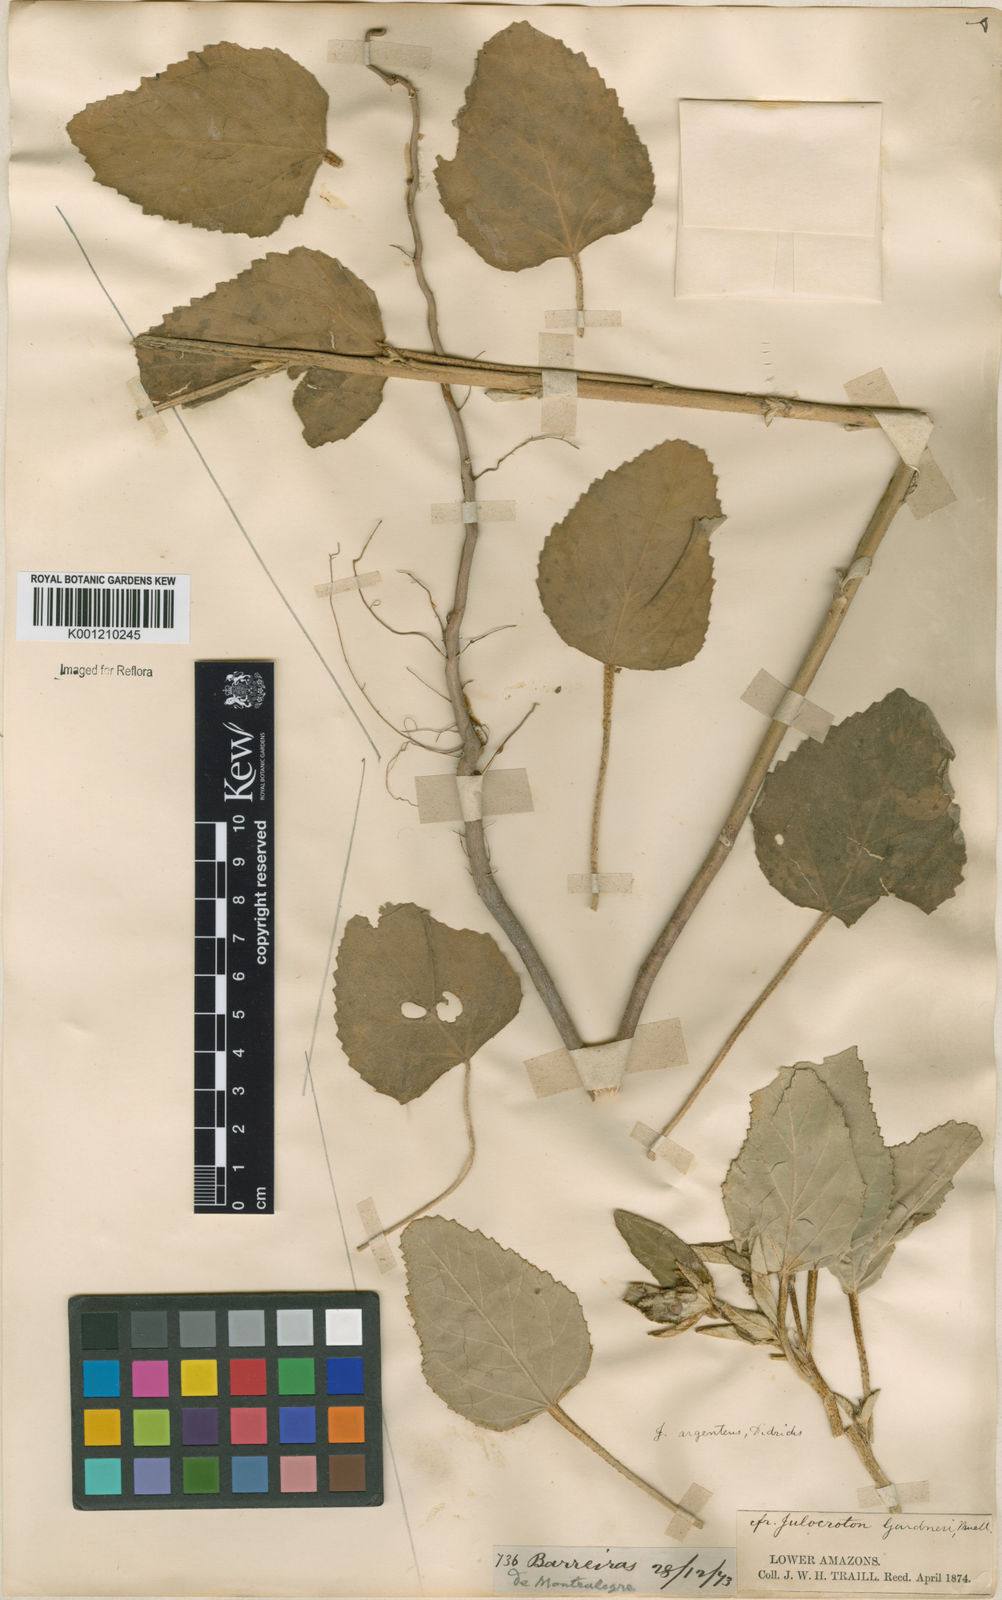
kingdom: Plantae
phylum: Tracheophyta
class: Magnoliopsida
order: Malpighiales
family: Euphorbiaceae
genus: Croton
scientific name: Croton
